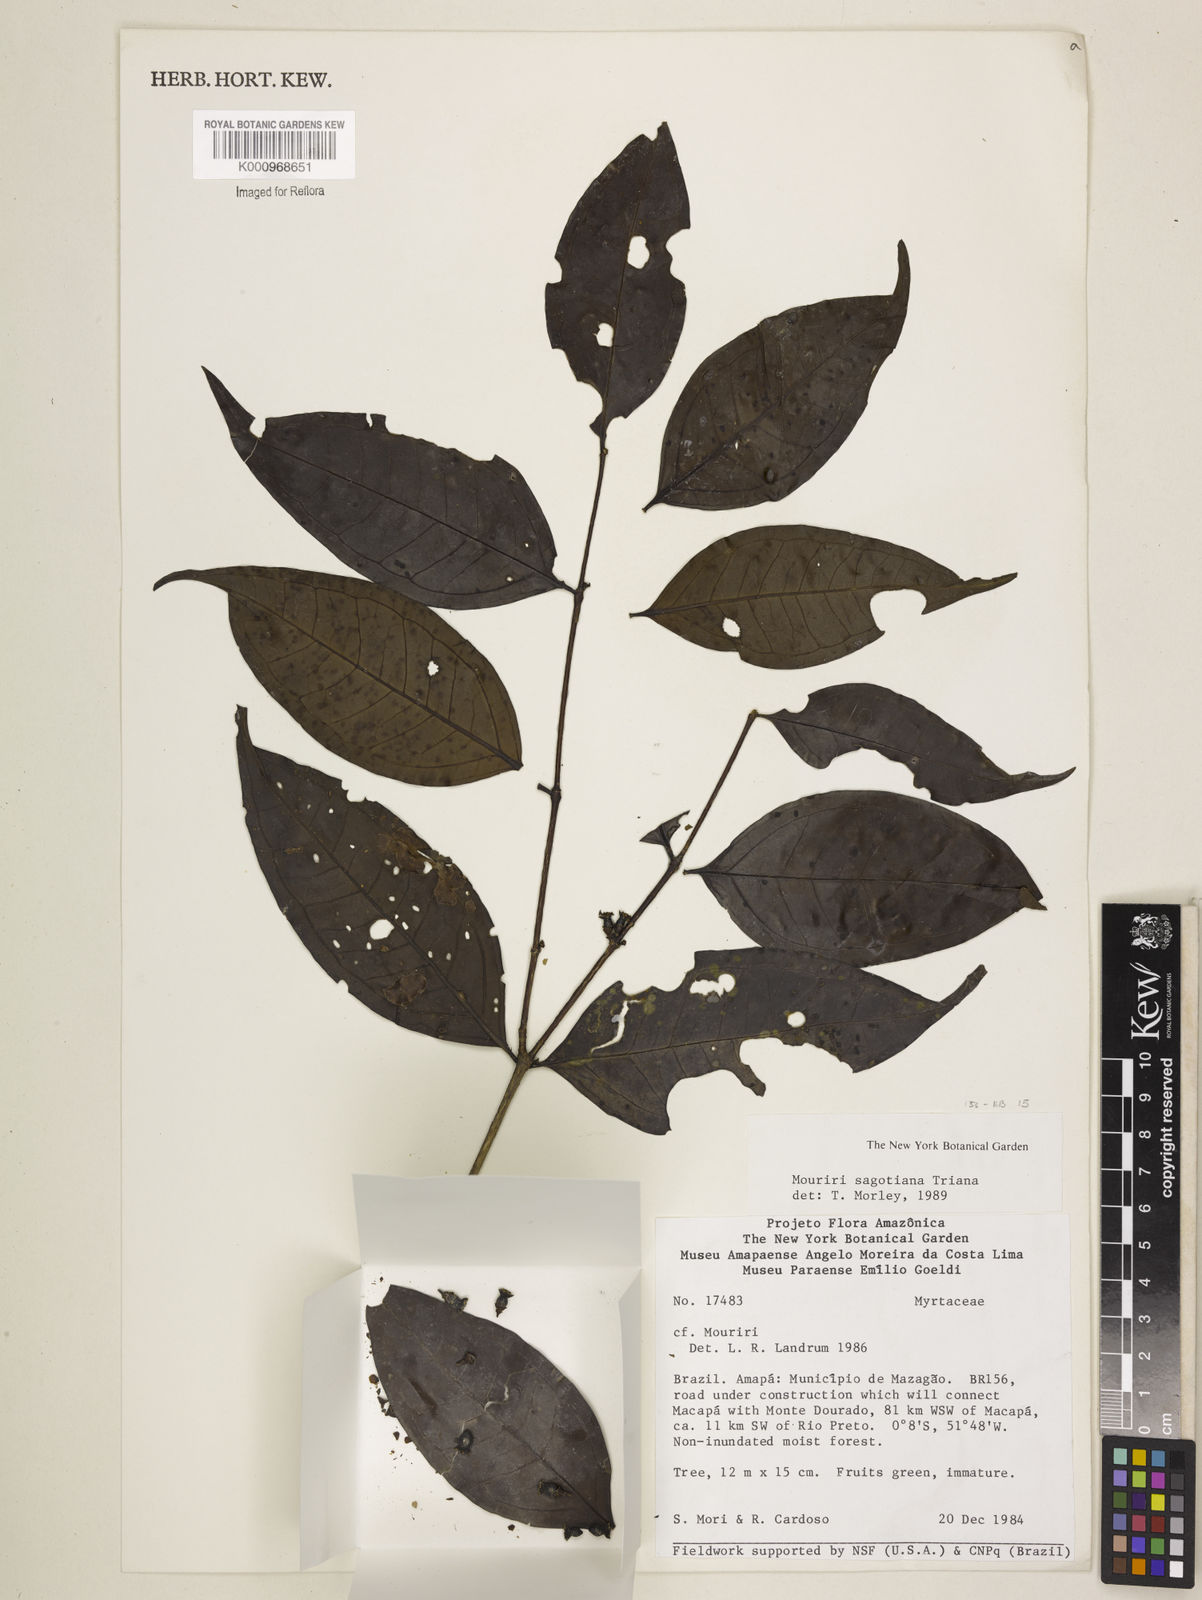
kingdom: Plantae
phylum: Tracheophyta
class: Magnoliopsida
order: Myrtales
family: Melastomataceae
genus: Mouriri
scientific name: Mouriri sagotiana
